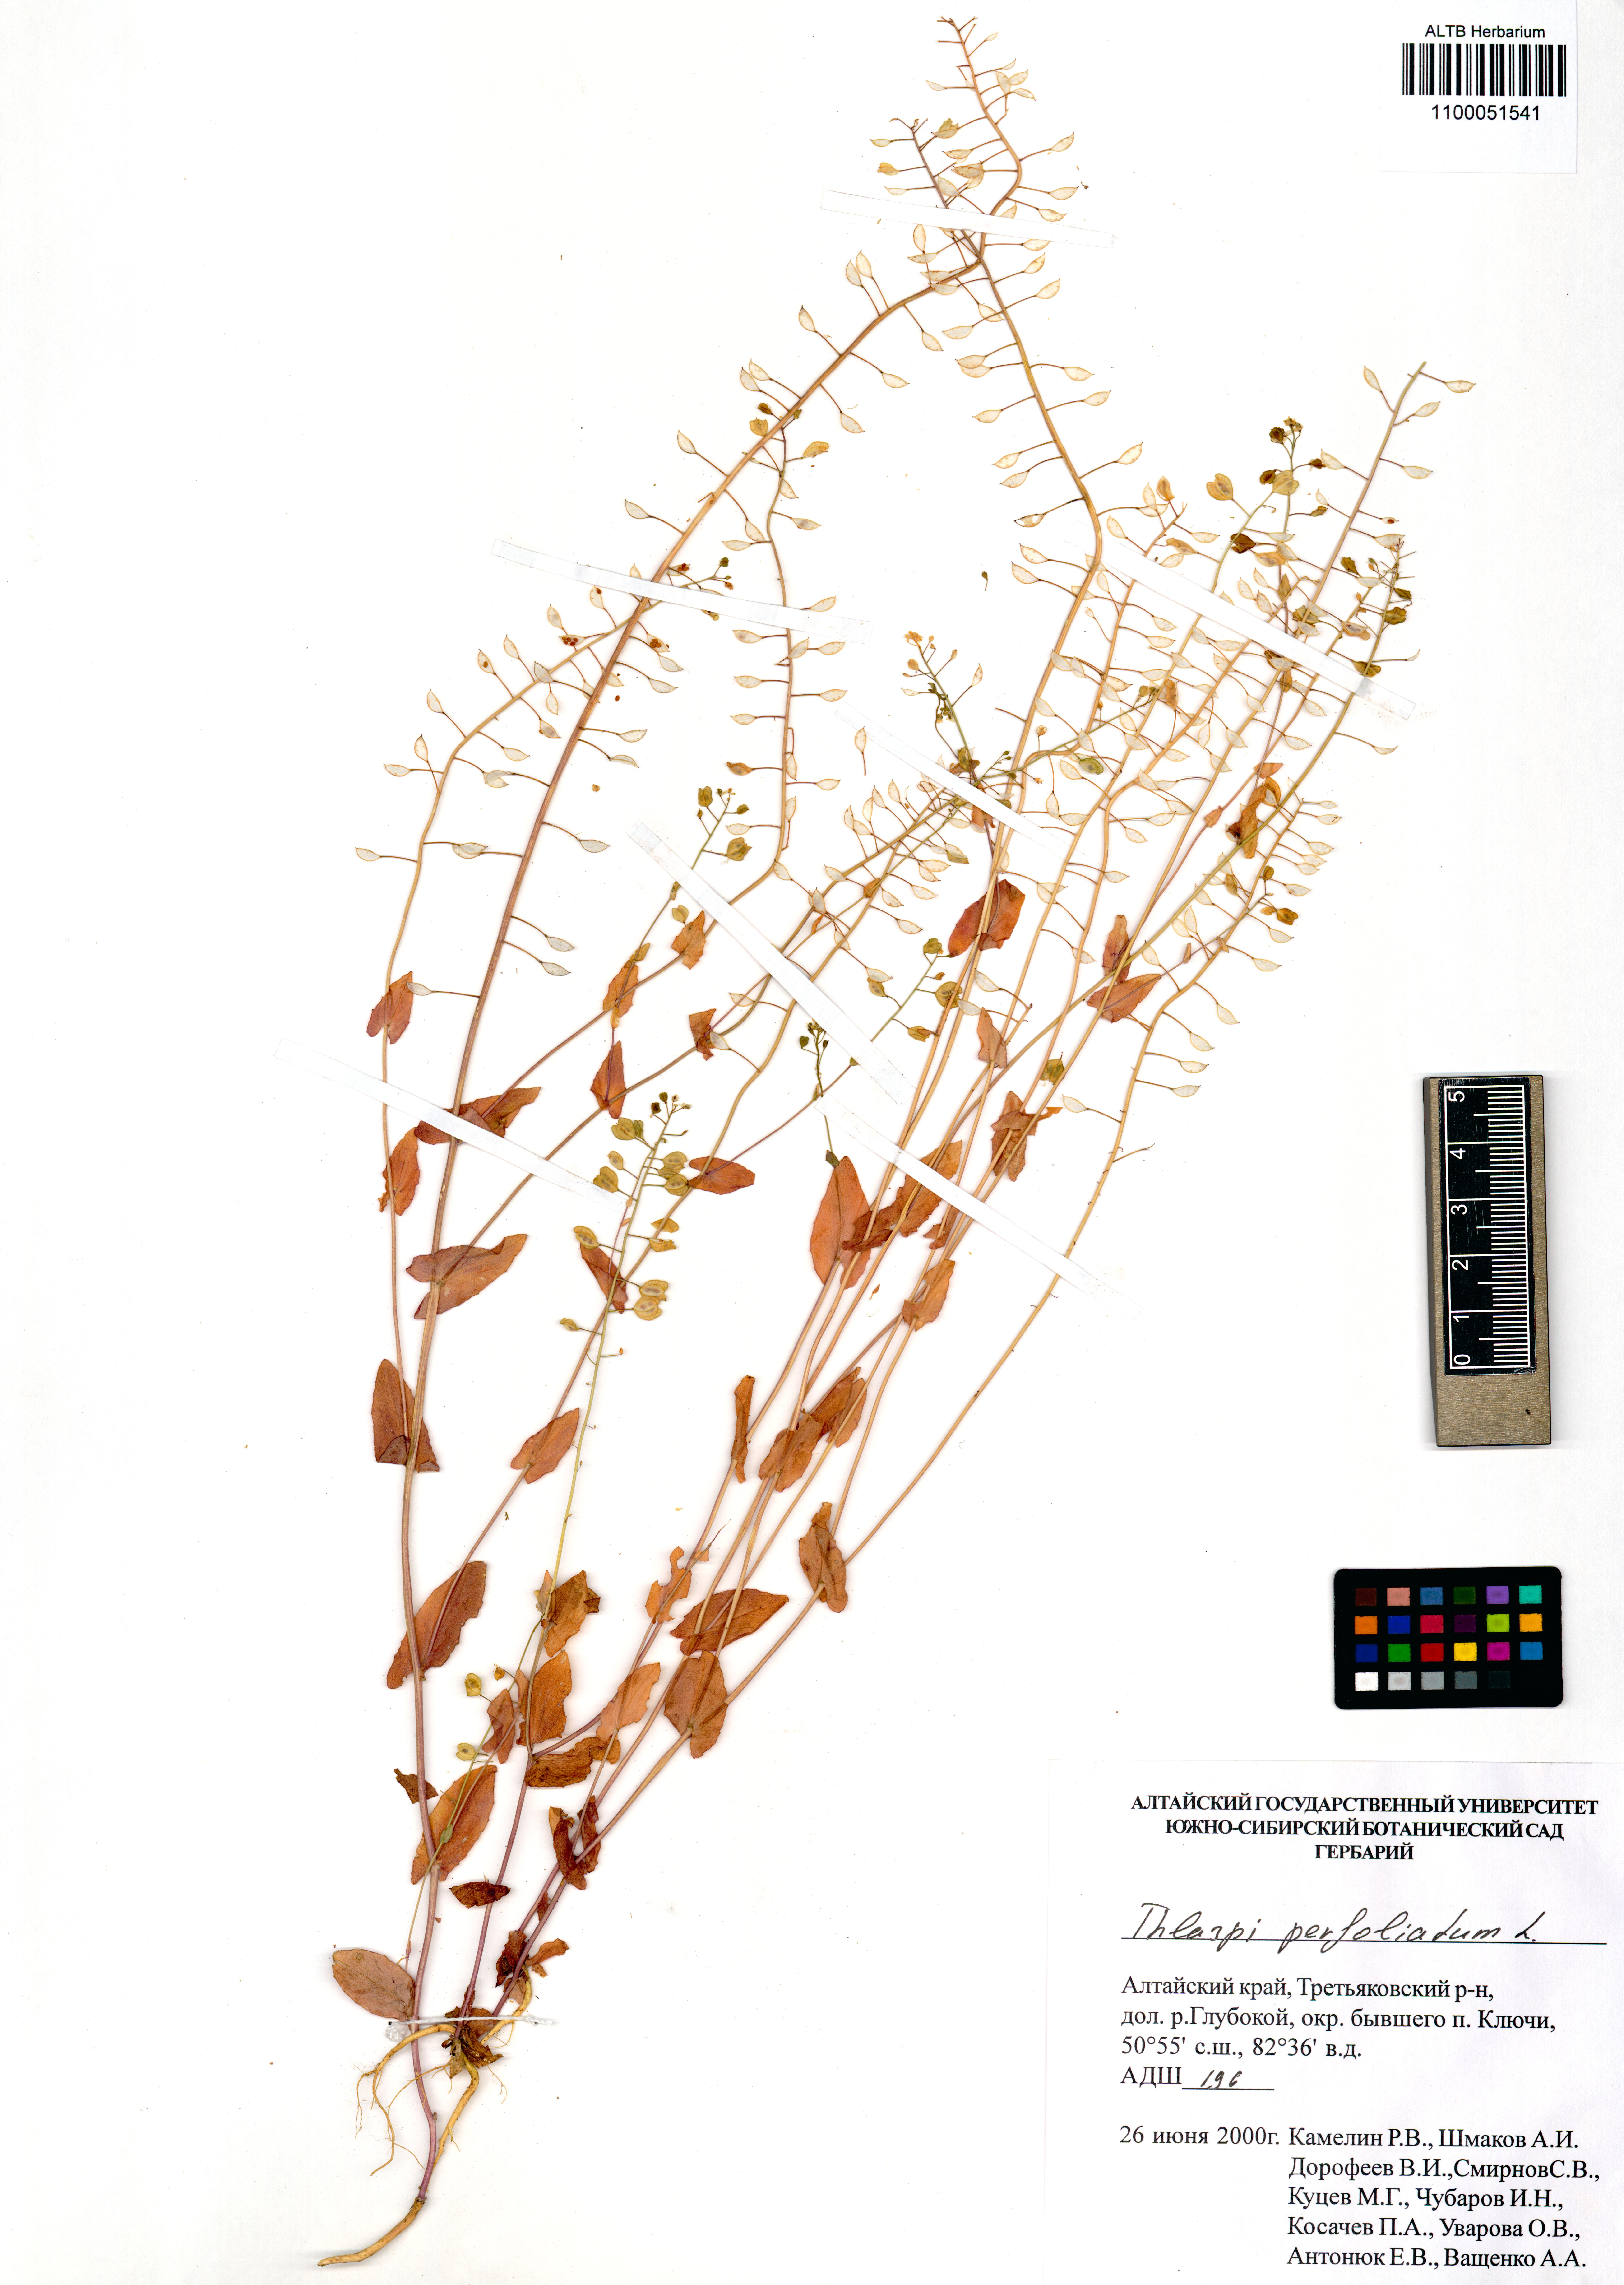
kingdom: Plantae
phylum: Tracheophyta
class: Magnoliopsida
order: Brassicales
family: Brassicaceae
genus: Noccaea
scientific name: Noccaea perfoliata
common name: Perfoliate pennycress
